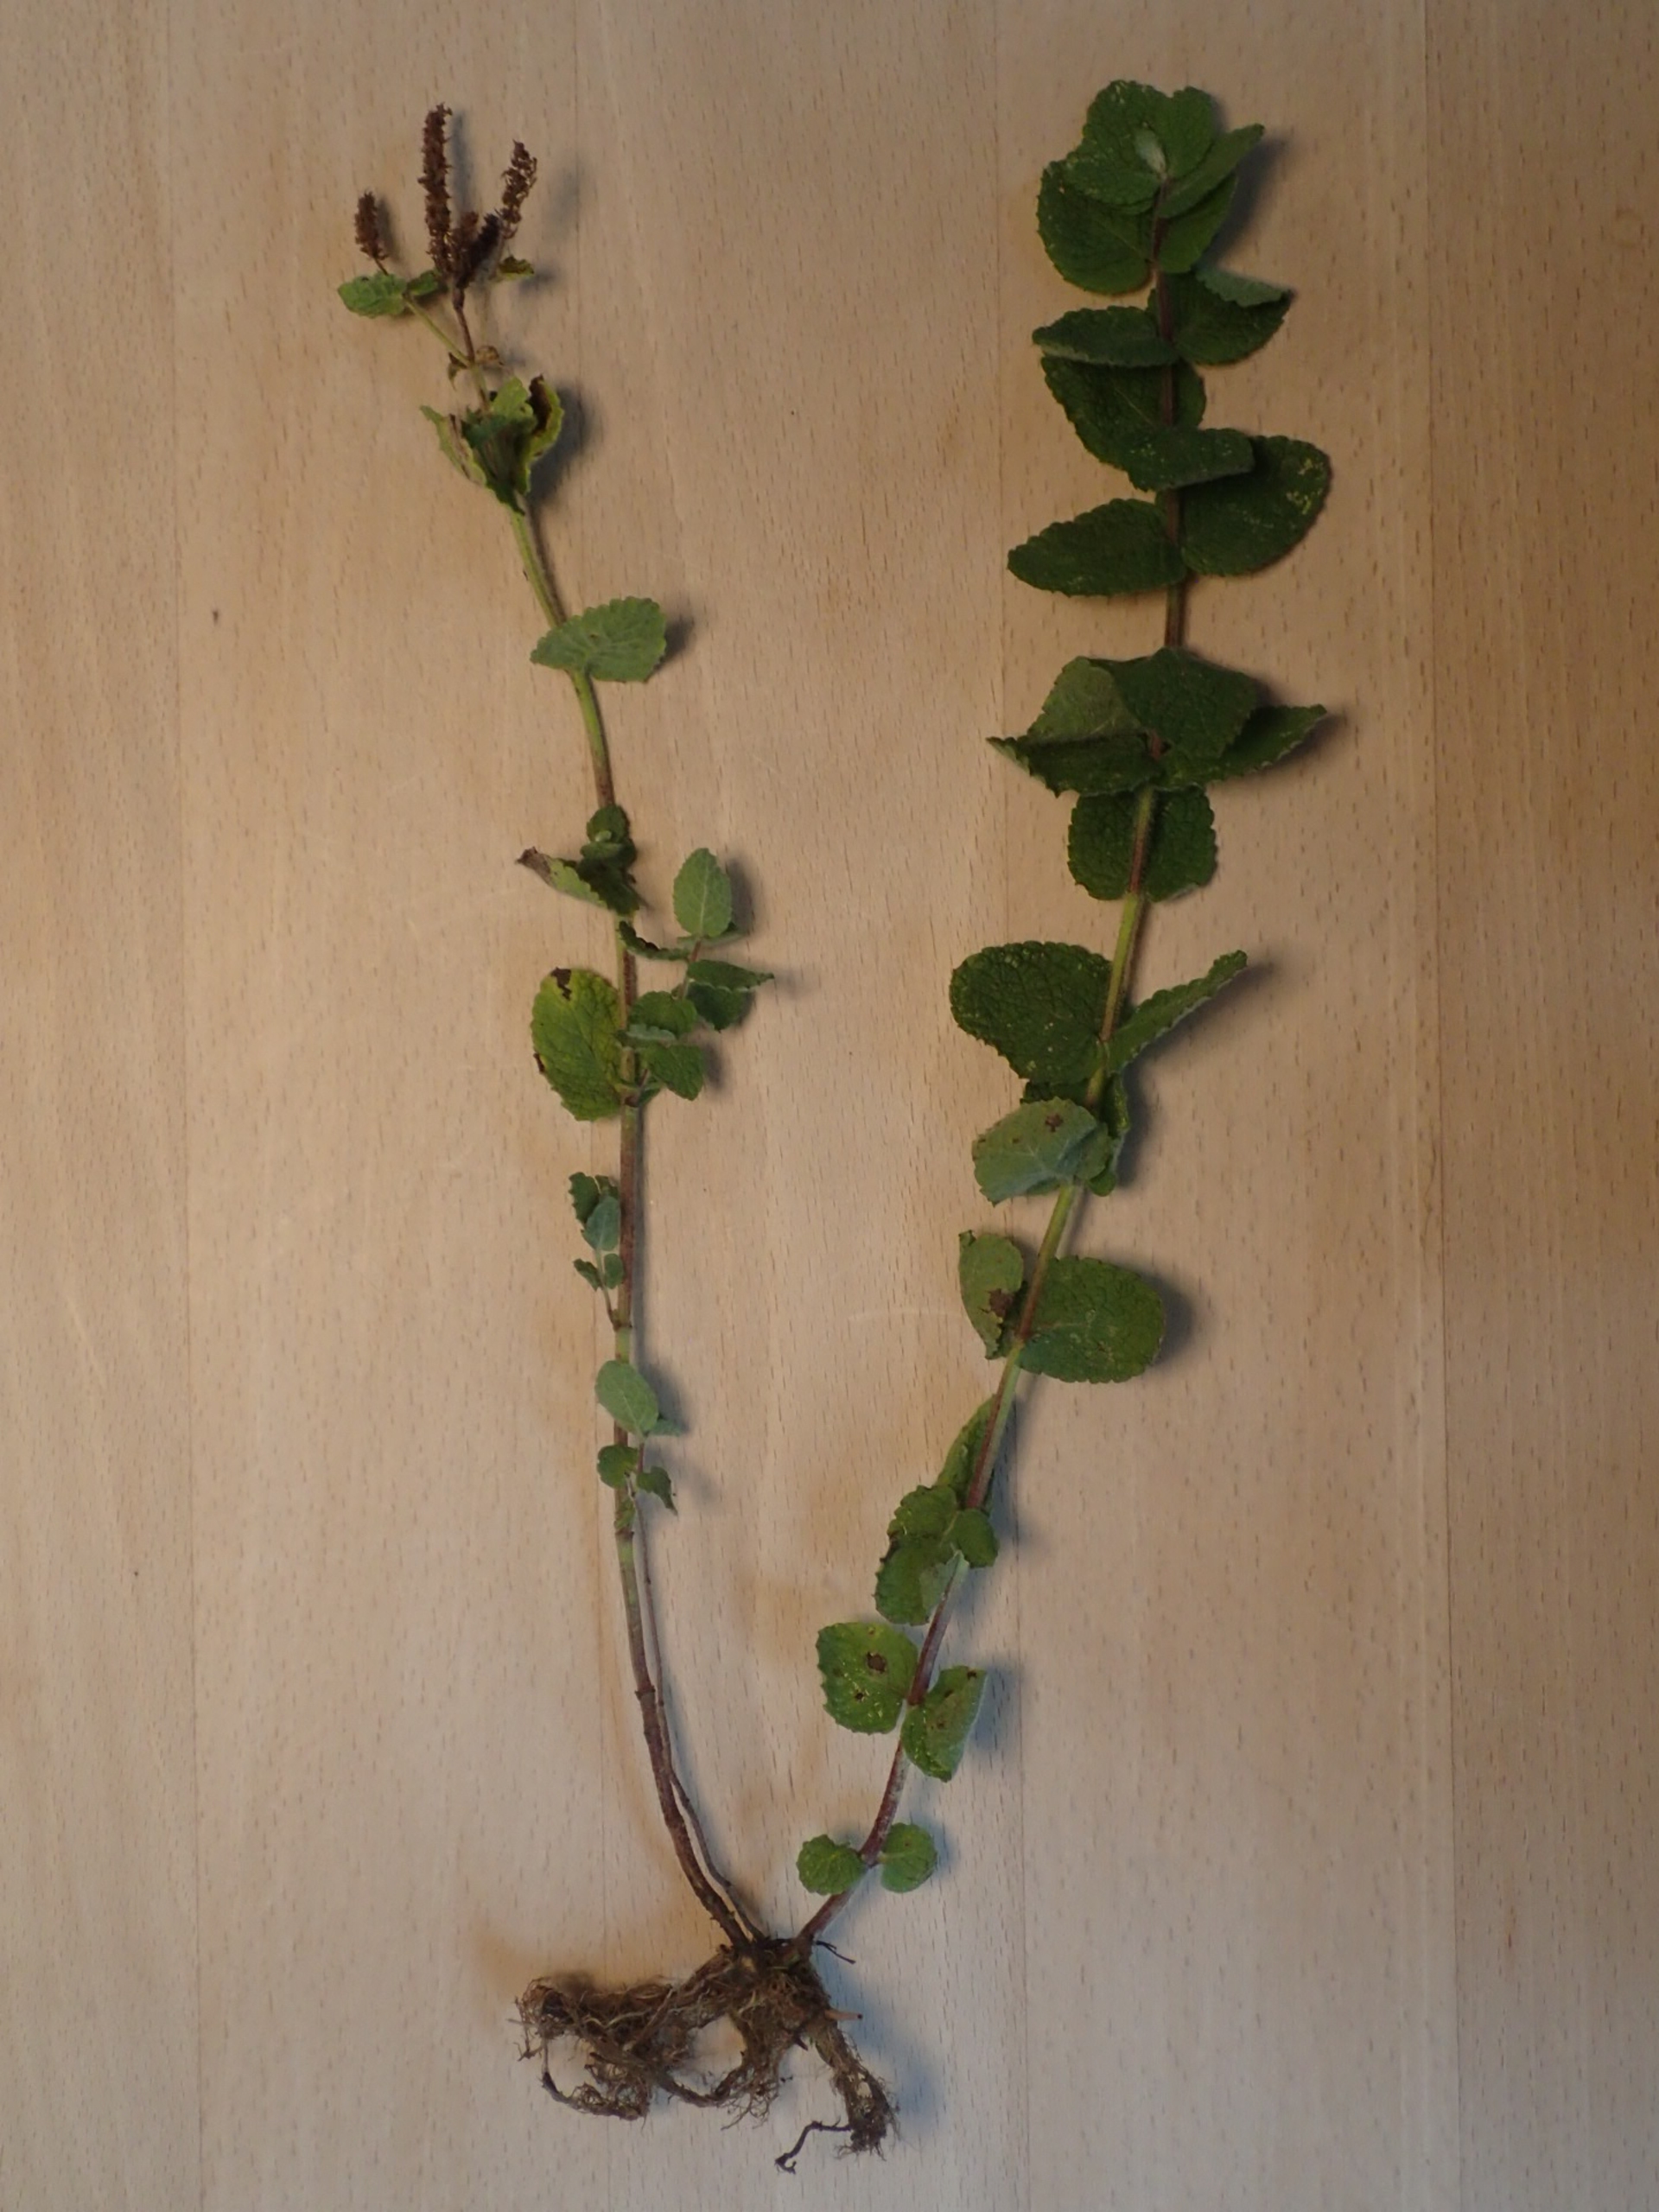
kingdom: Plantae
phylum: Tracheophyta
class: Magnoliopsida
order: Lamiales
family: Lamiaceae
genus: Mentha
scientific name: Mentha suaveolens
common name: Rundbladet mynte
